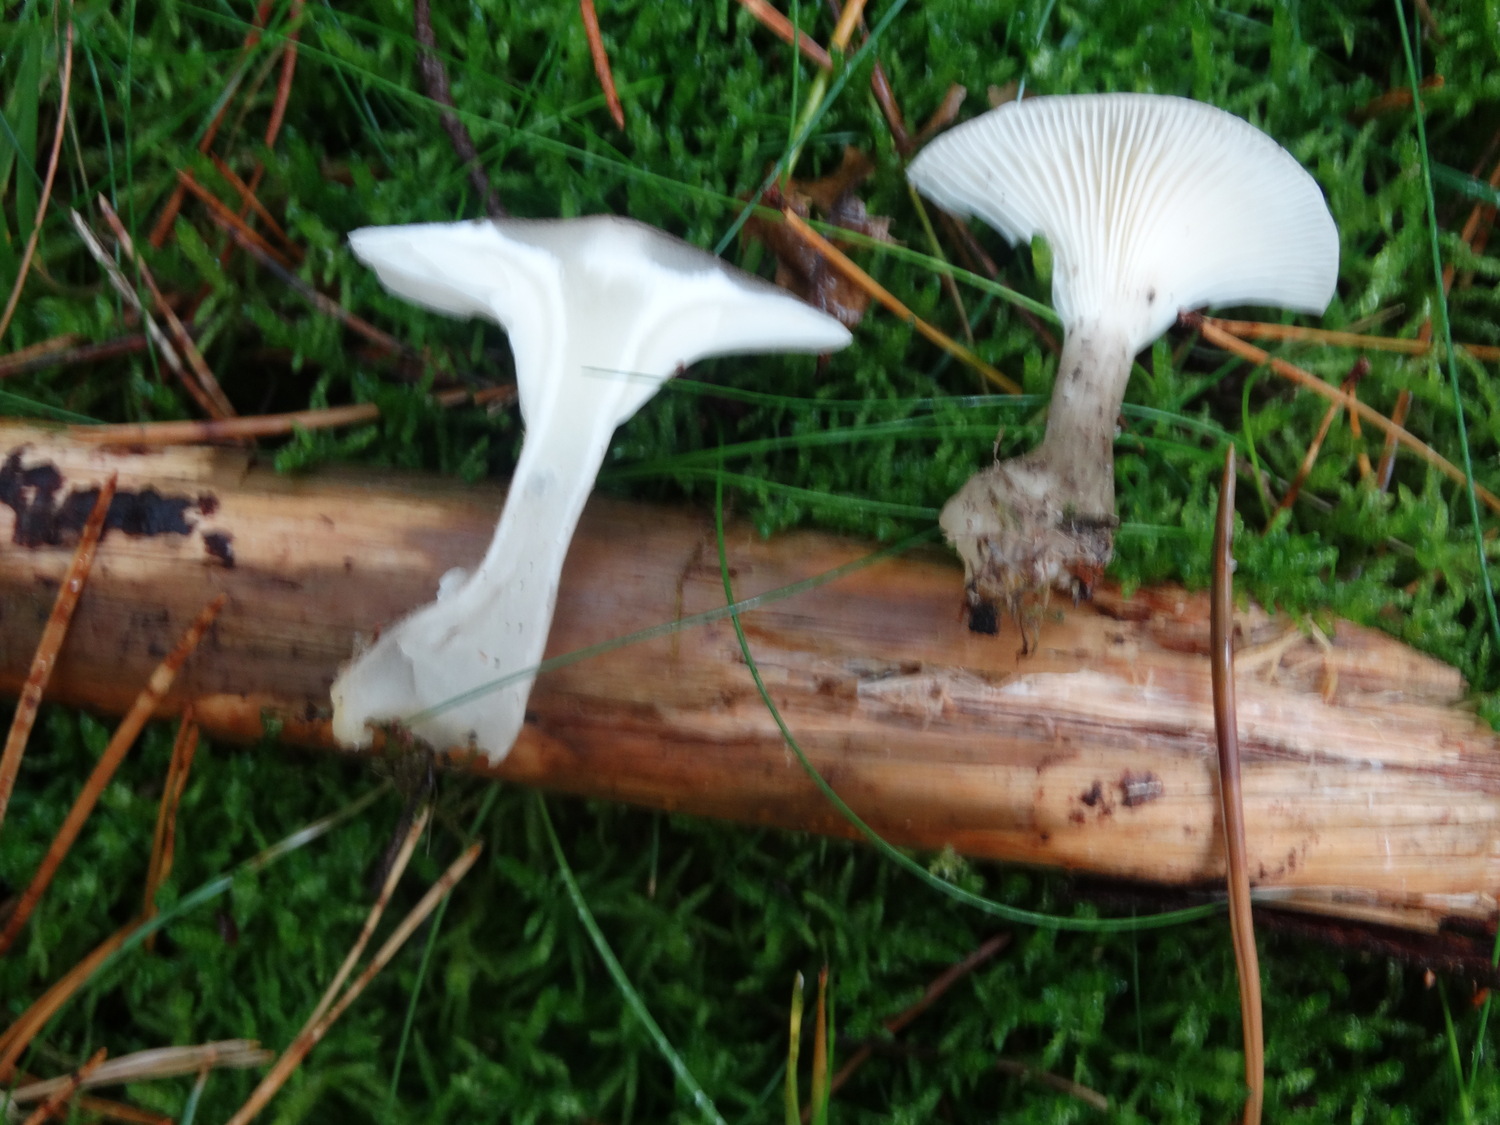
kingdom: Fungi
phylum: Basidiomycota
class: Agaricomycetes
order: Agaricales
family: Hygrophoraceae
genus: Ampulloclitocybe
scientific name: Ampulloclitocybe clavipes
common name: køllefod
